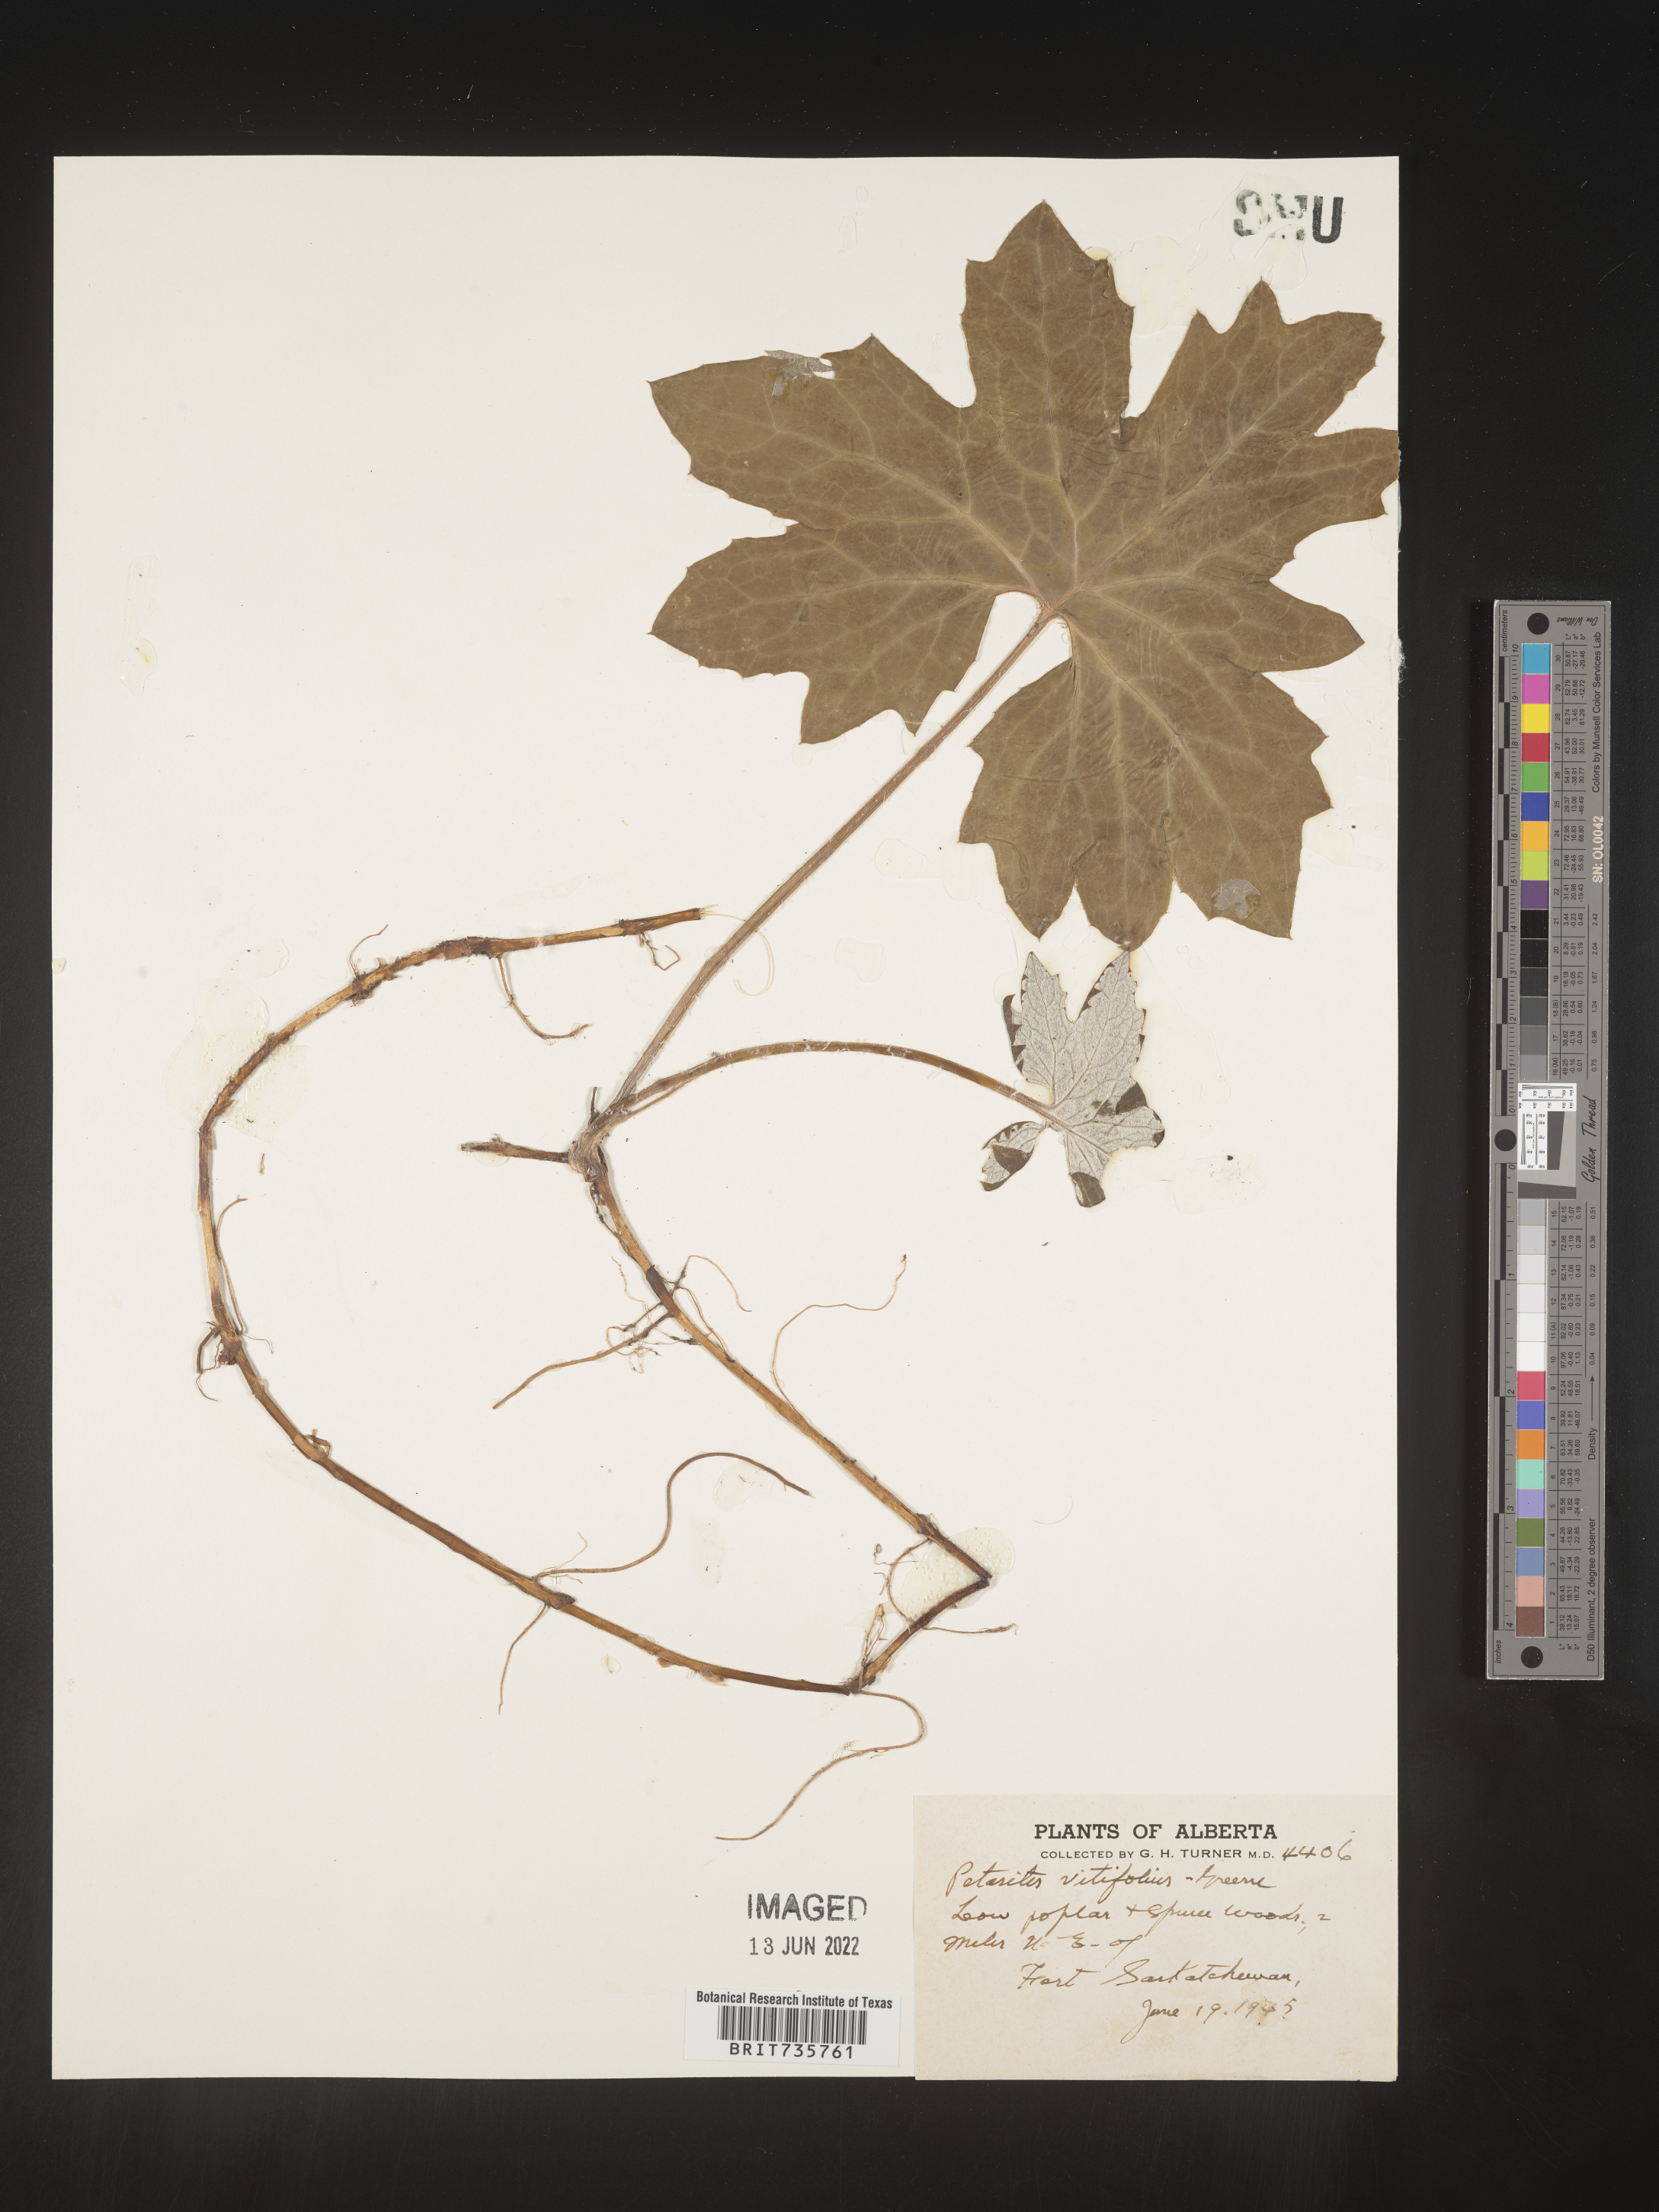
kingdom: Plantae
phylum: Tracheophyta
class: Magnoliopsida
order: Asterales
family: Asteraceae
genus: Petasites
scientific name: Petasites
